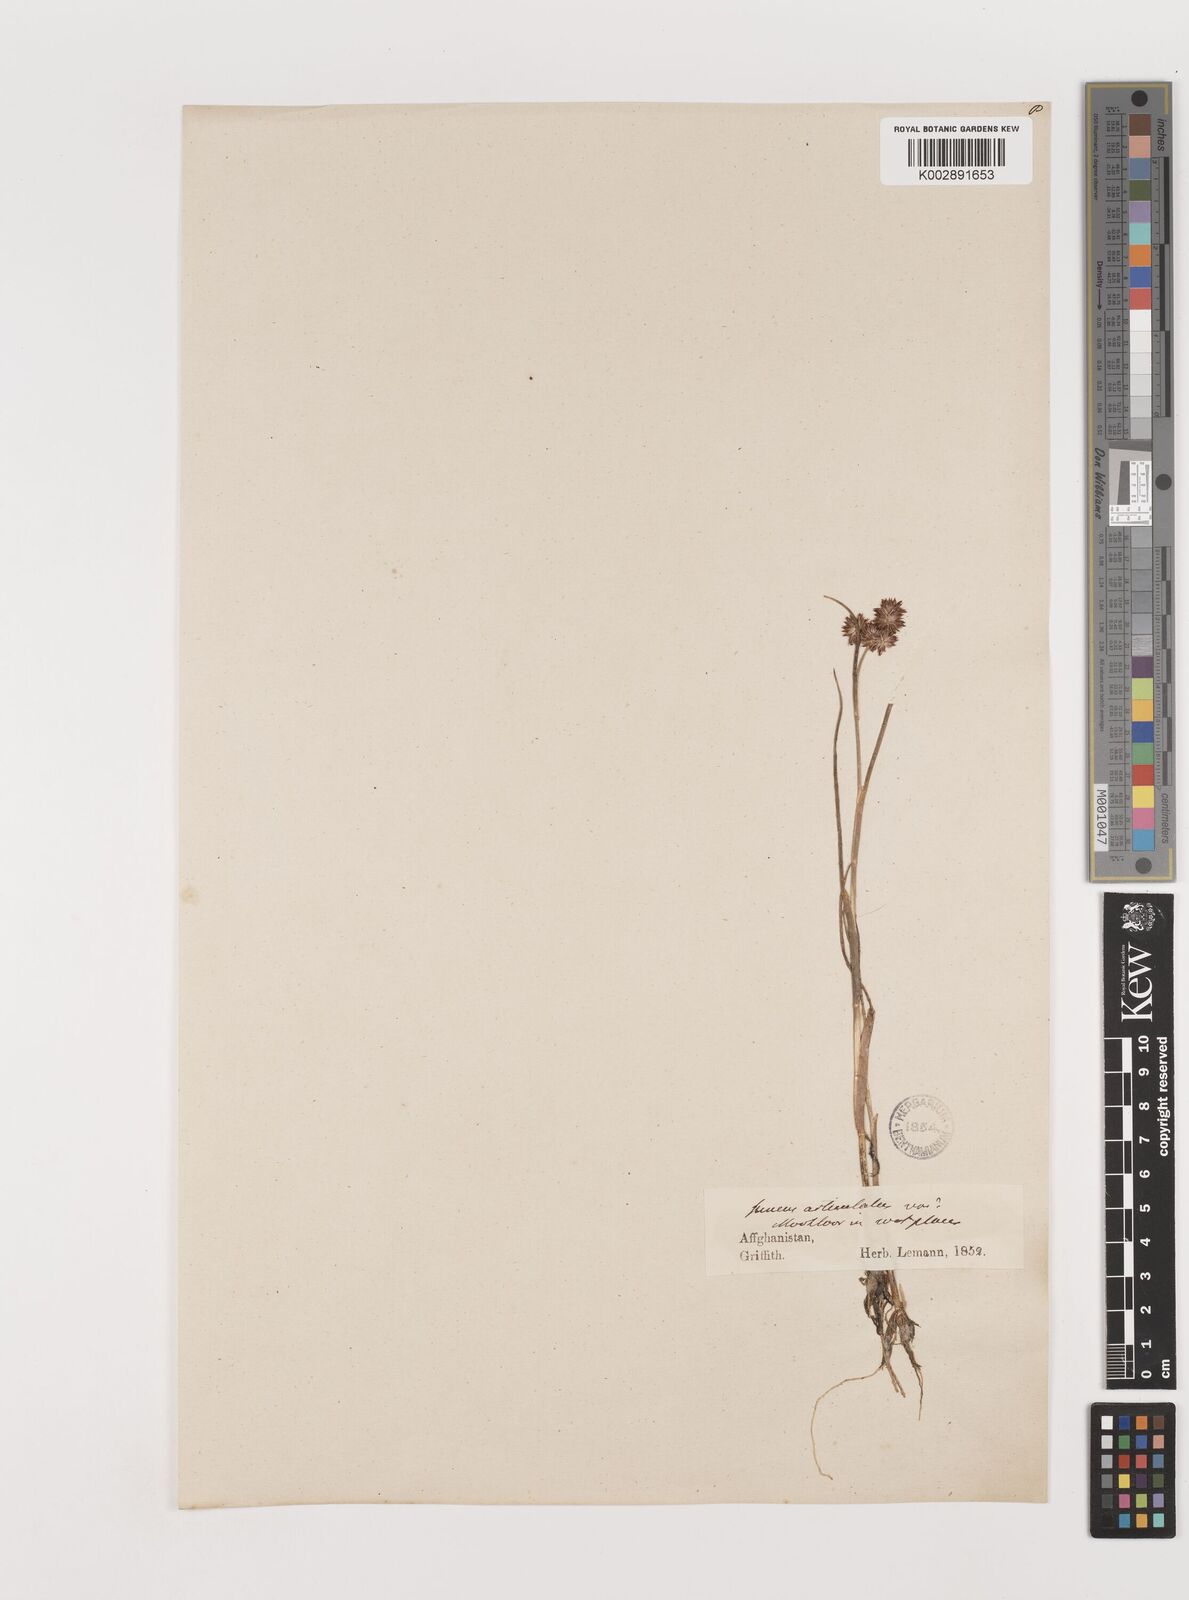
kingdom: Plantae
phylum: Tracheophyta
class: Liliopsida
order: Poales
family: Juncaceae
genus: Juncus
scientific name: Juncus fontanesii
